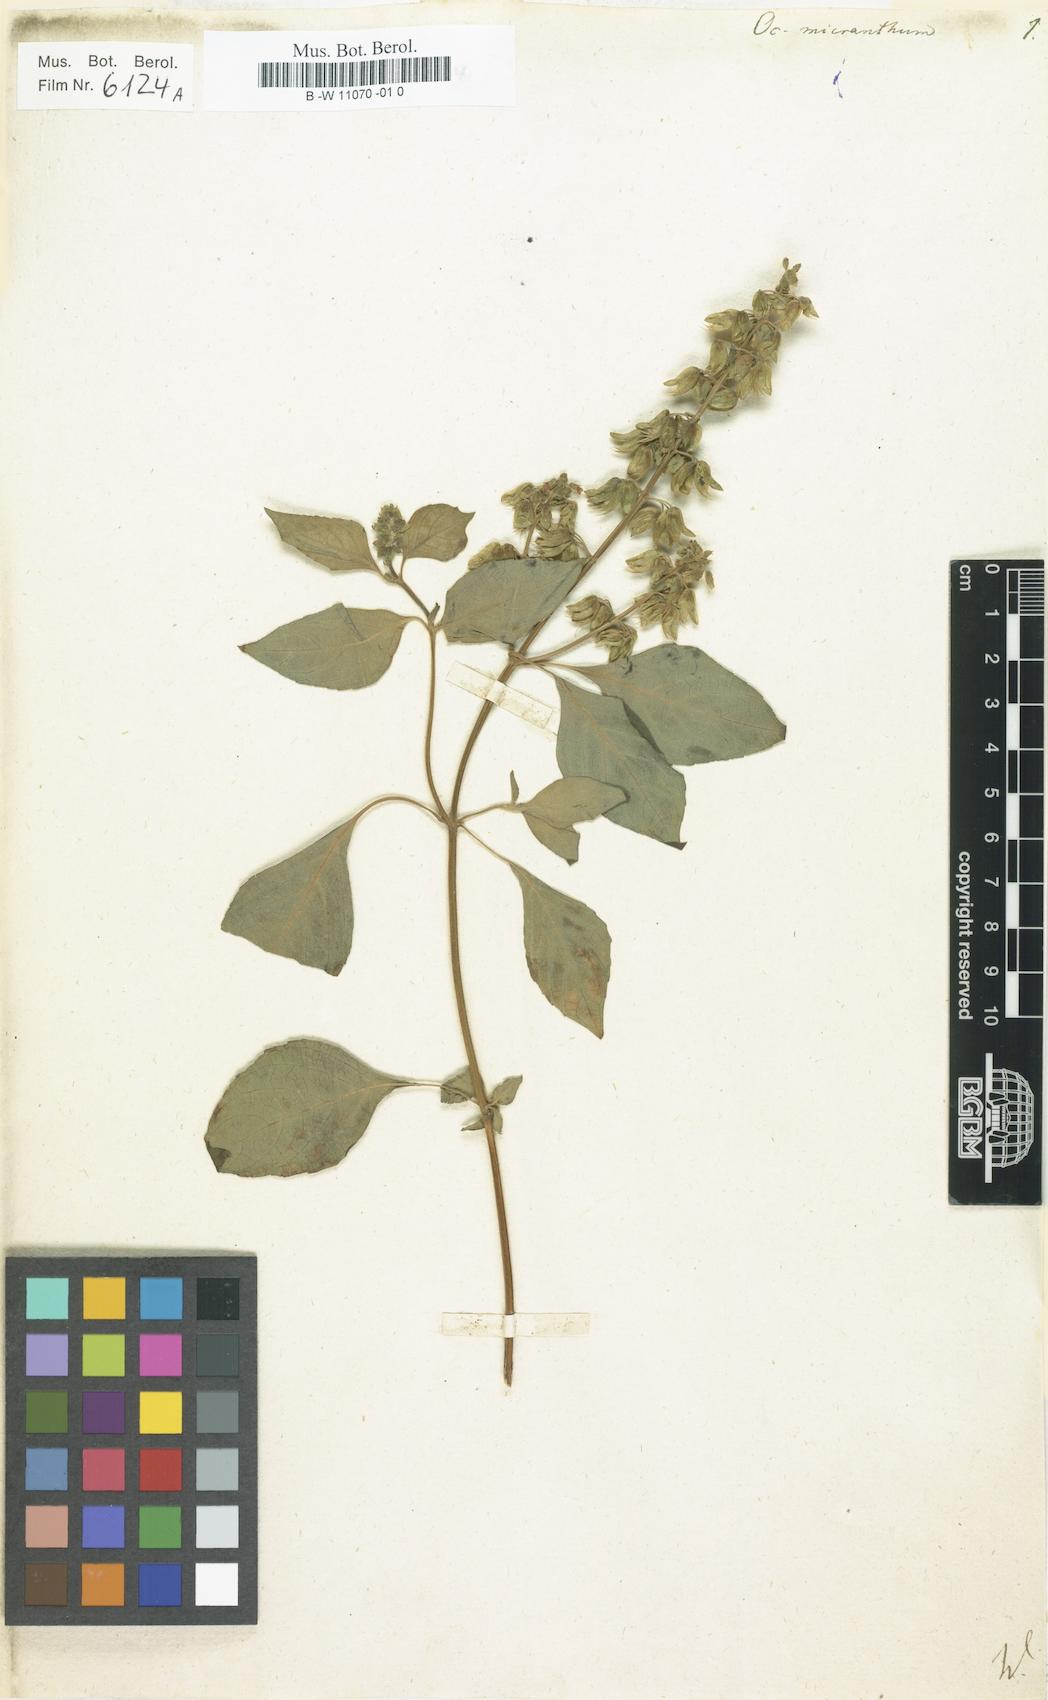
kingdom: Plantae
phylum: Tracheophyta
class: Magnoliopsida
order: Lamiales
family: Lamiaceae
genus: Ocimum
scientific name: Ocimum campechianum
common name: Mosquito basil
